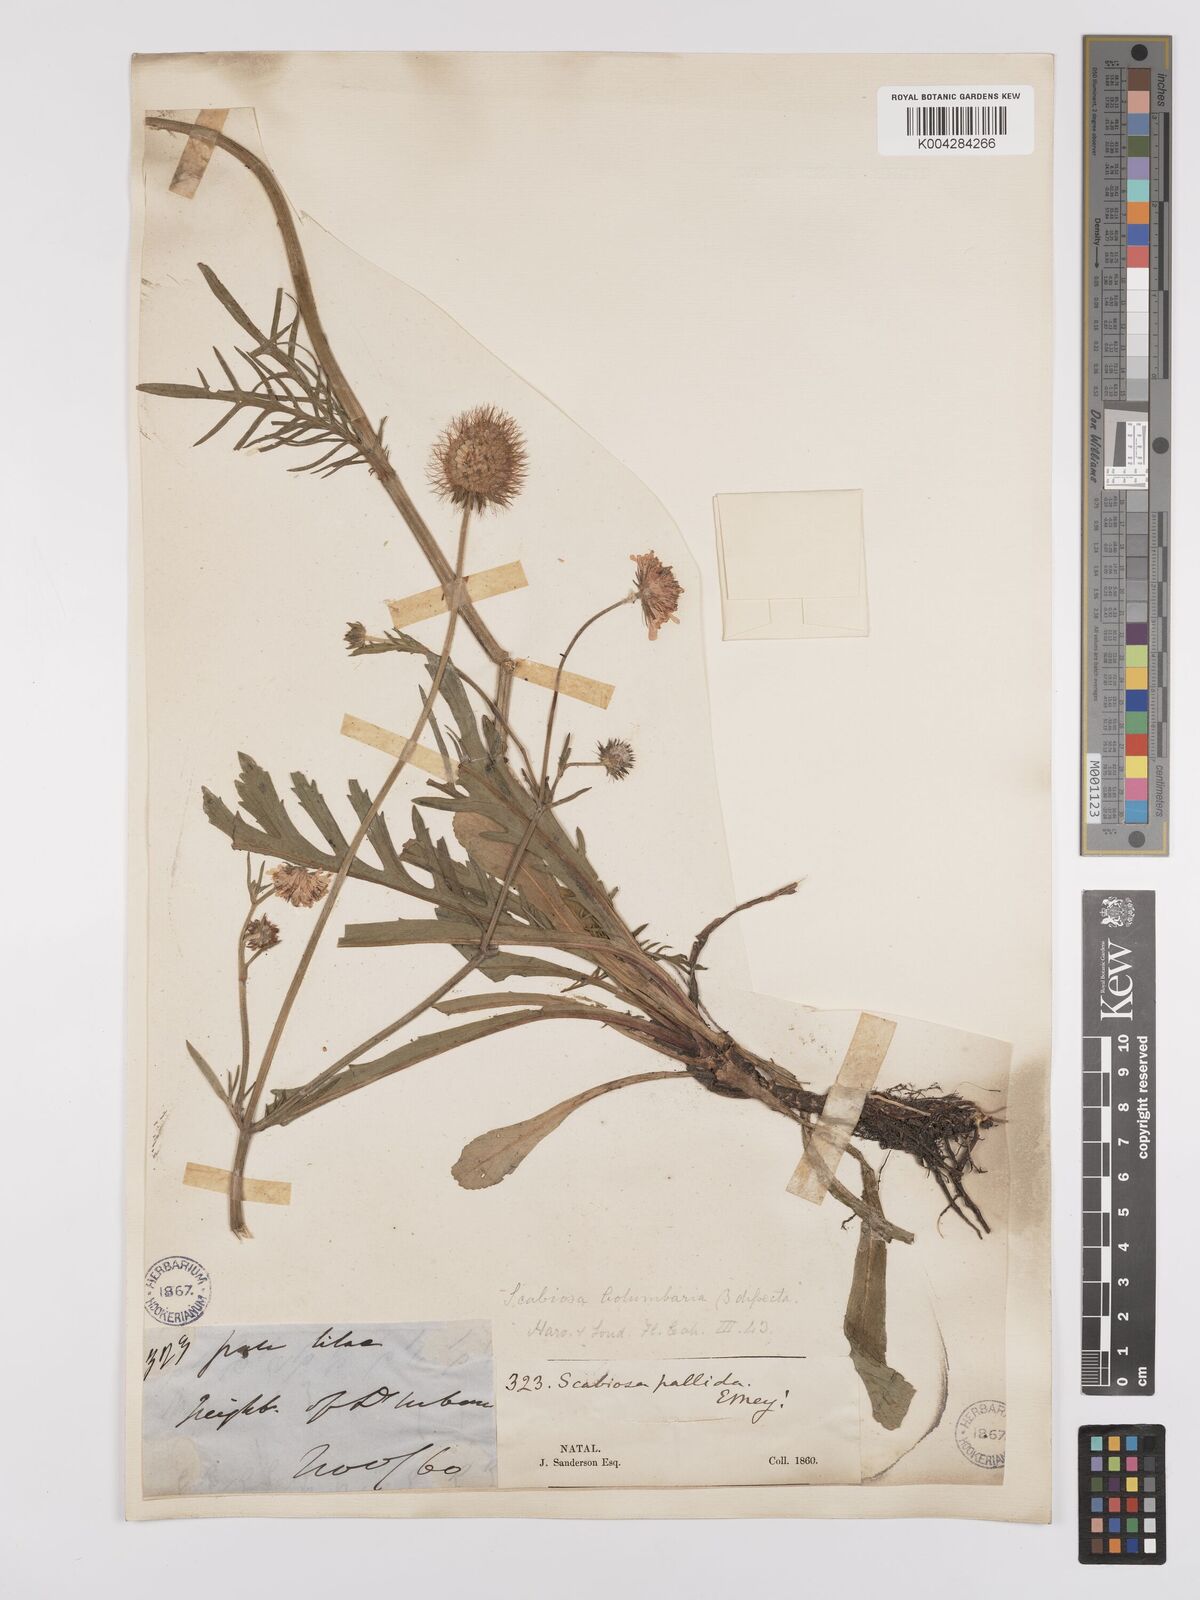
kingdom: Plantae
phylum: Tracheophyta
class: Magnoliopsida
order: Dipsacales
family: Caprifoliaceae
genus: Scabiosa
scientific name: Scabiosa columbaria
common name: Small scabious
